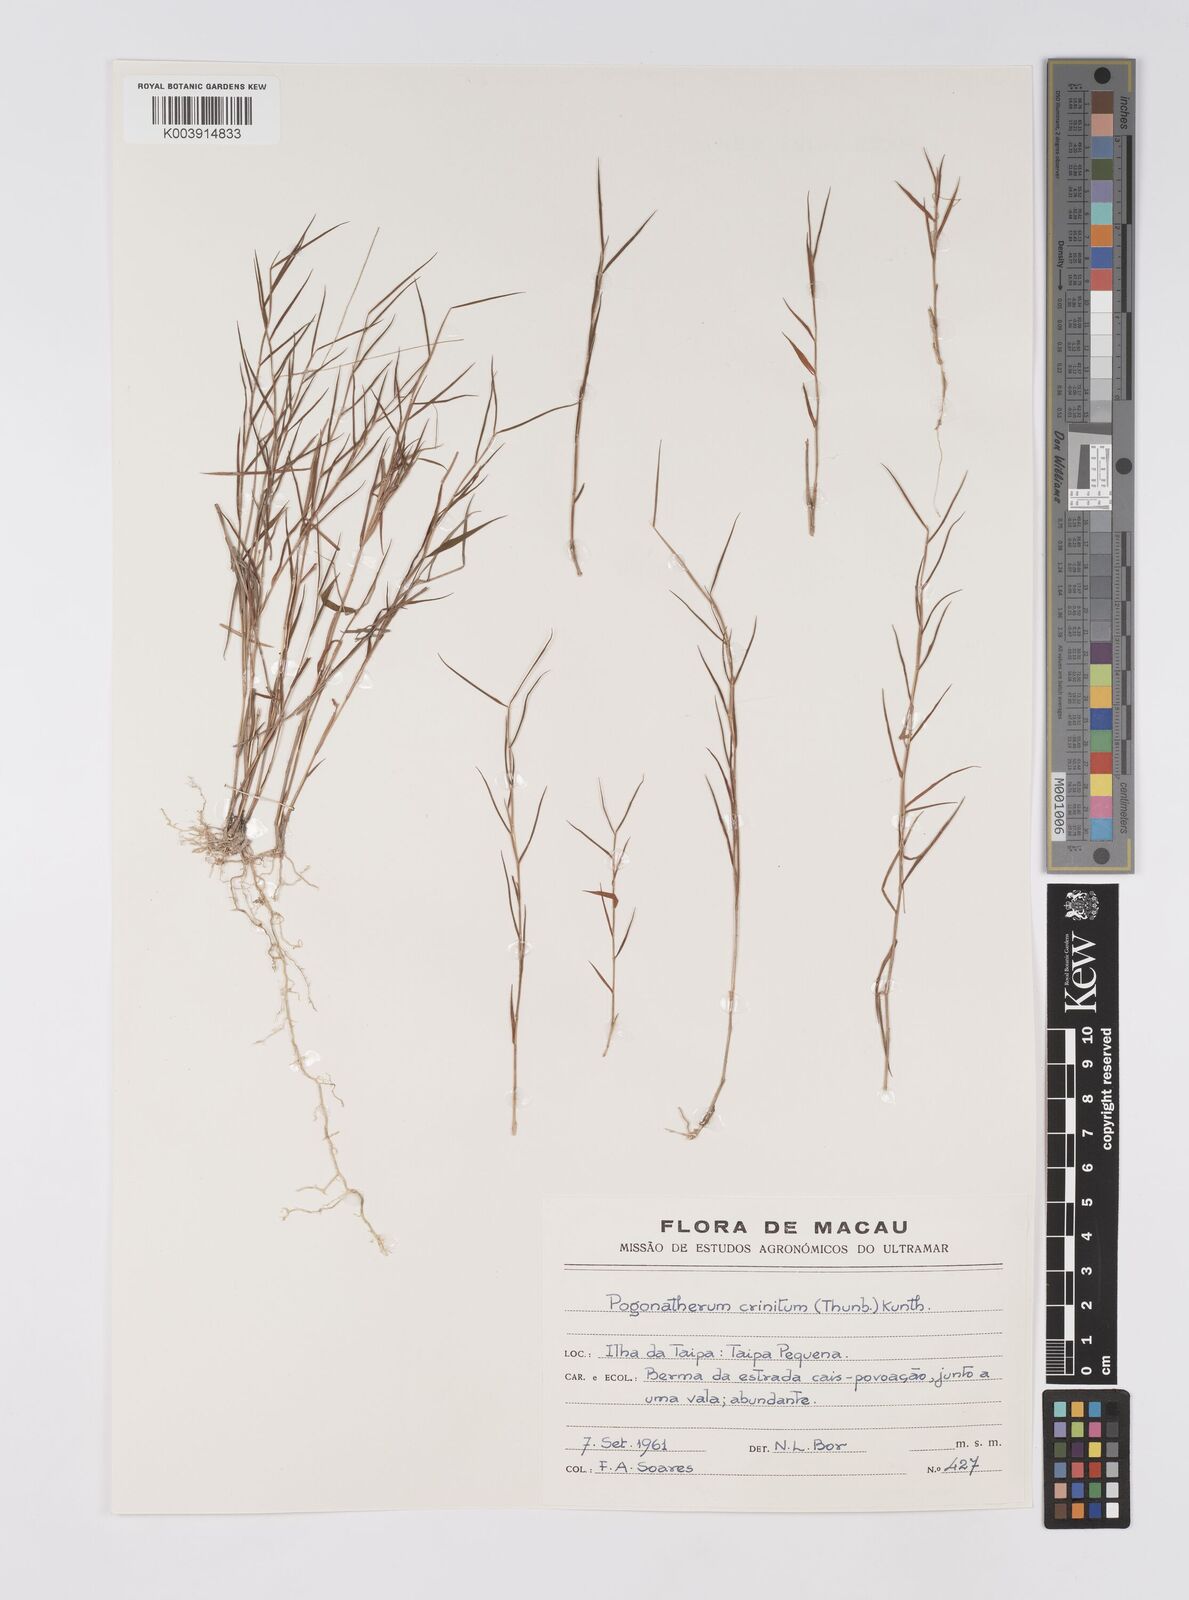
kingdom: Plantae
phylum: Tracheophyta
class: Liliopsida
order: Poales
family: Poaceae
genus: Pogonatherum
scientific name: Pogonatherum crinitum
